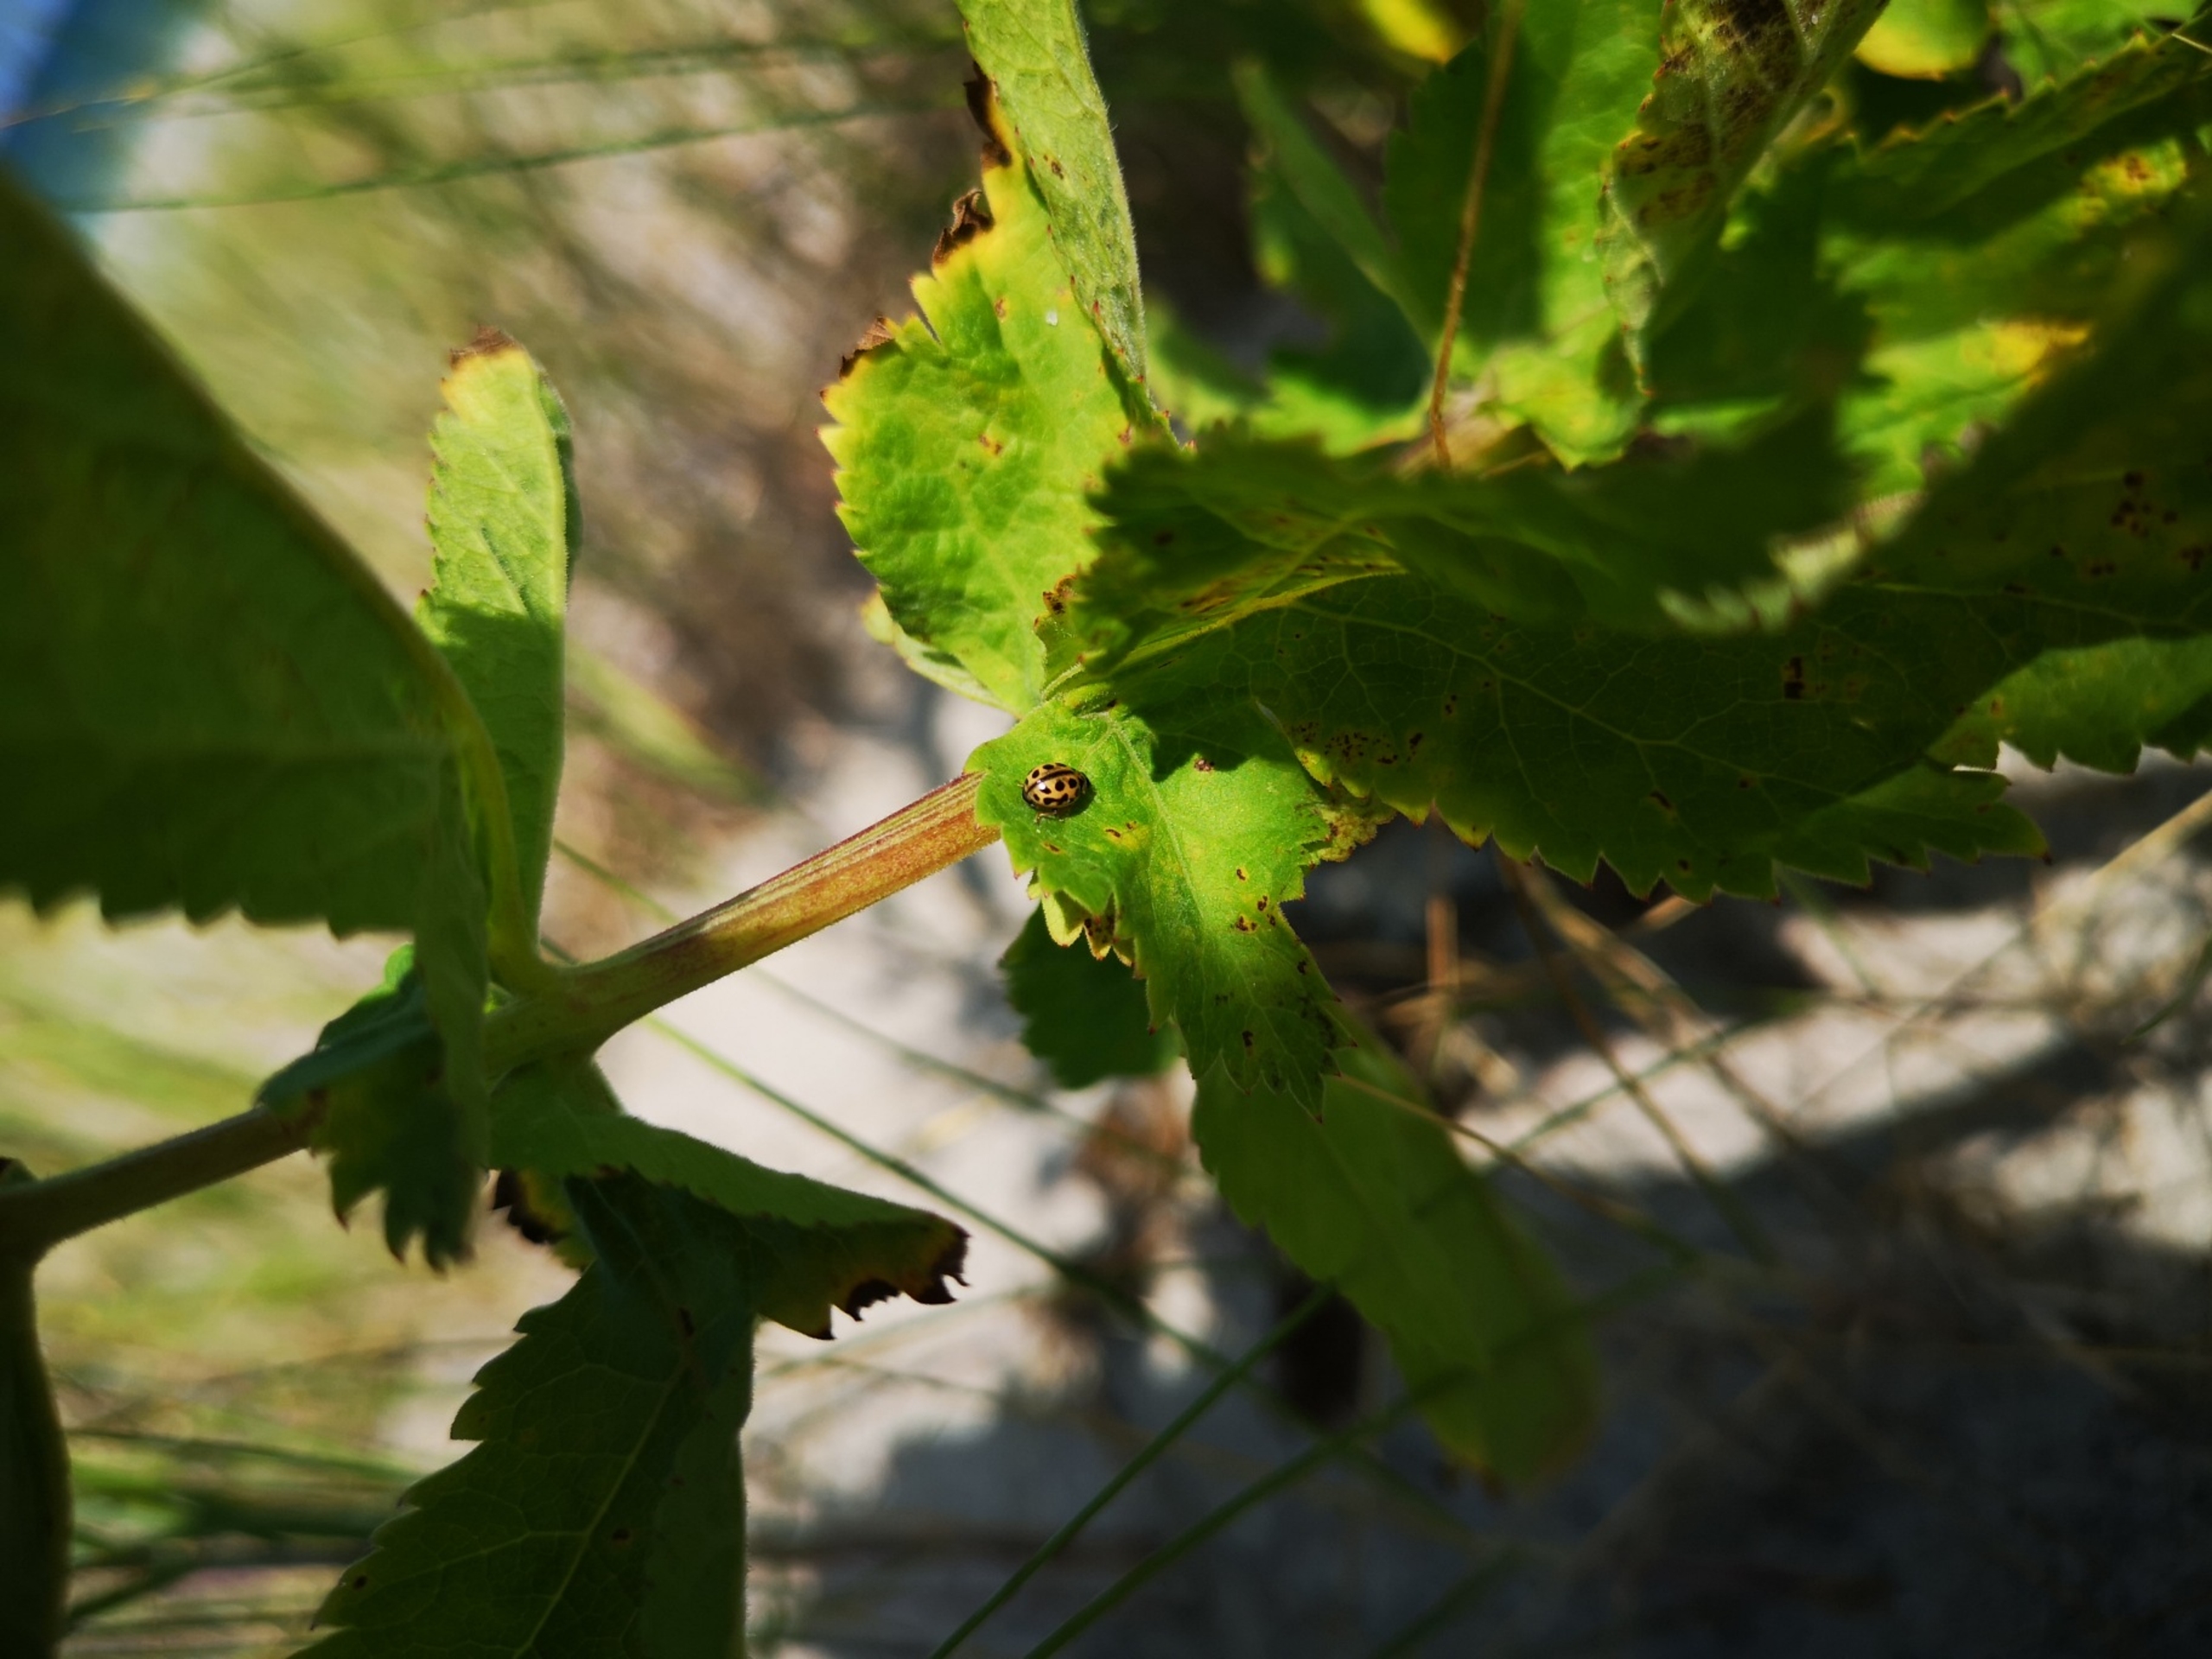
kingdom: Animalia
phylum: Arthropoda
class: Insecta
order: Coleoptera
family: Coccinellidae
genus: Tytthaspis
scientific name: Tytthaspis sedecimpunctata
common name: Sekstenprikket mariehøne
